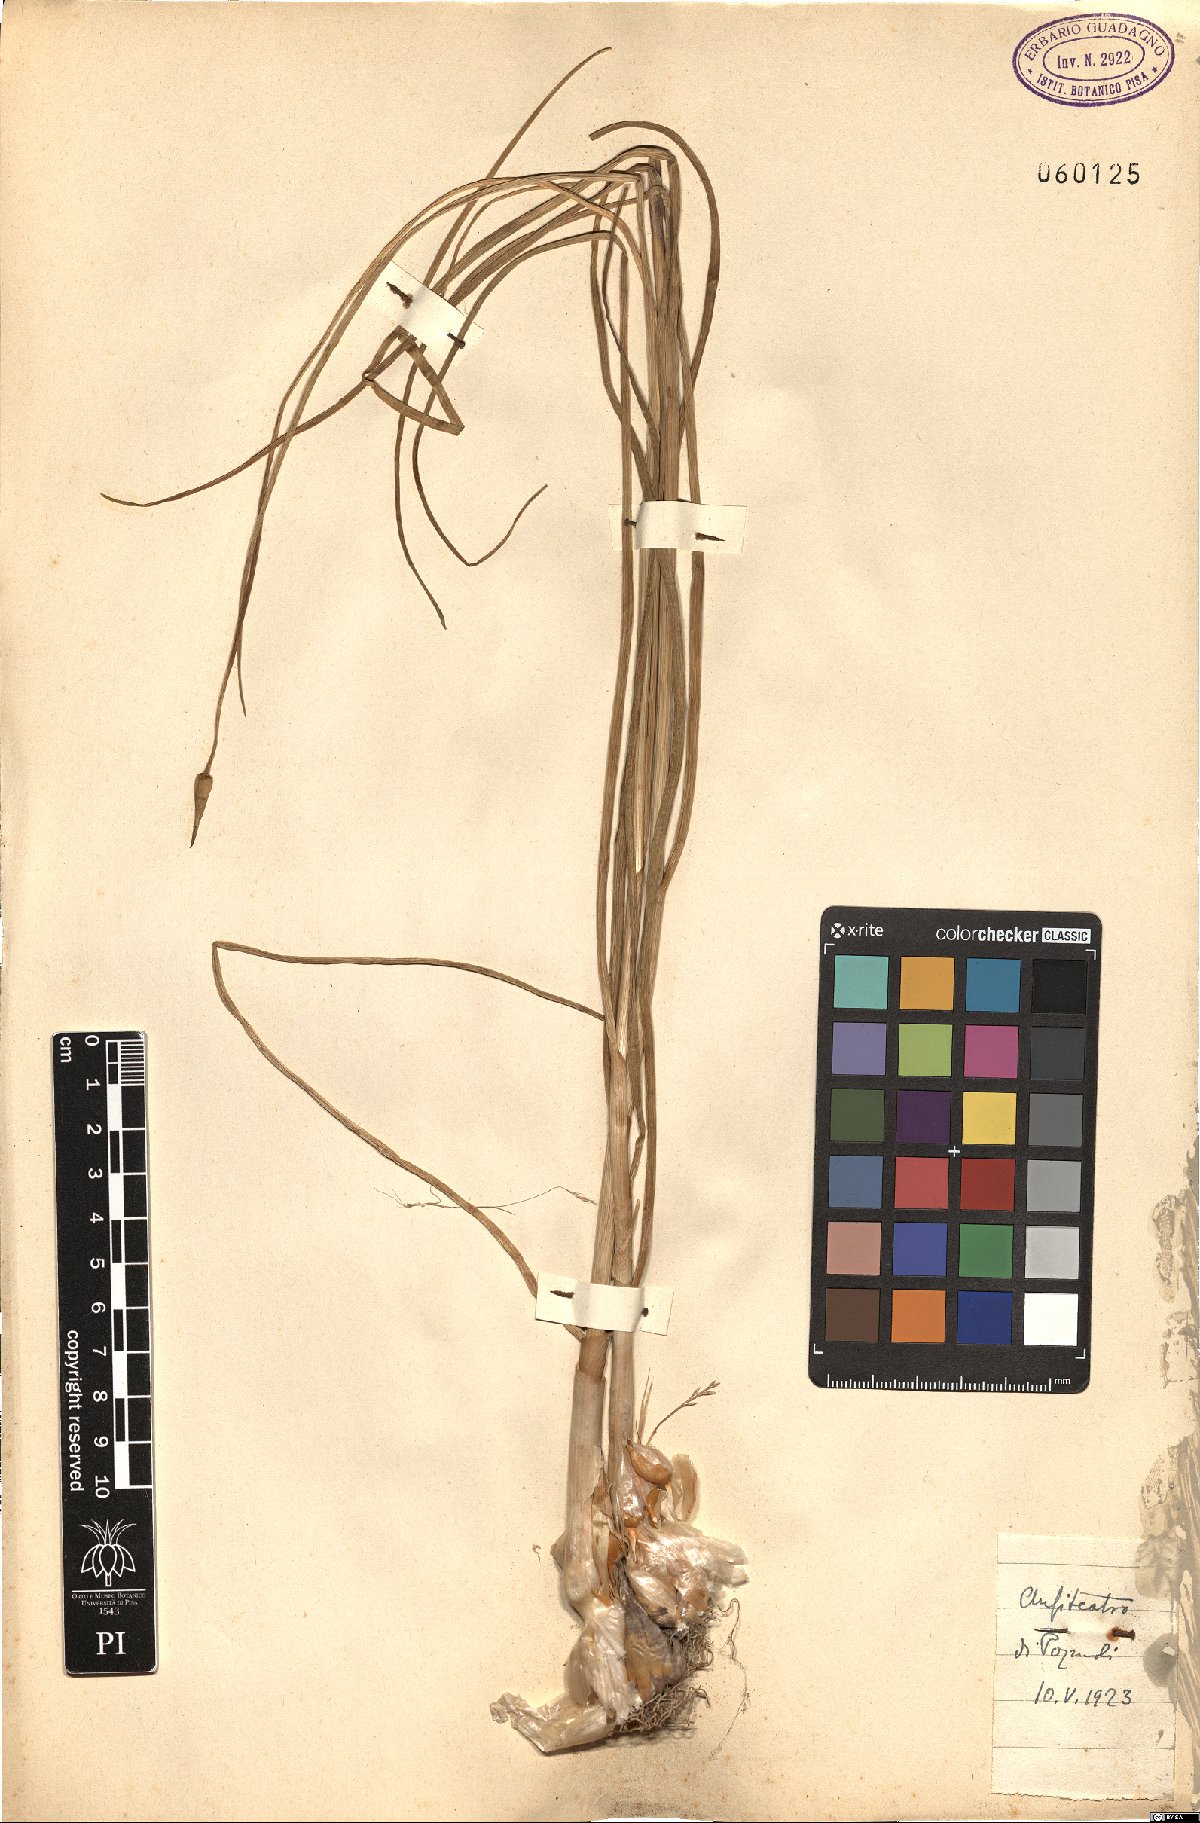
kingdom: Plantae
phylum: Tracheophyta
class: Liliopsida
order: Asparagales
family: Amaryllidaceae
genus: Allium
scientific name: Allium
